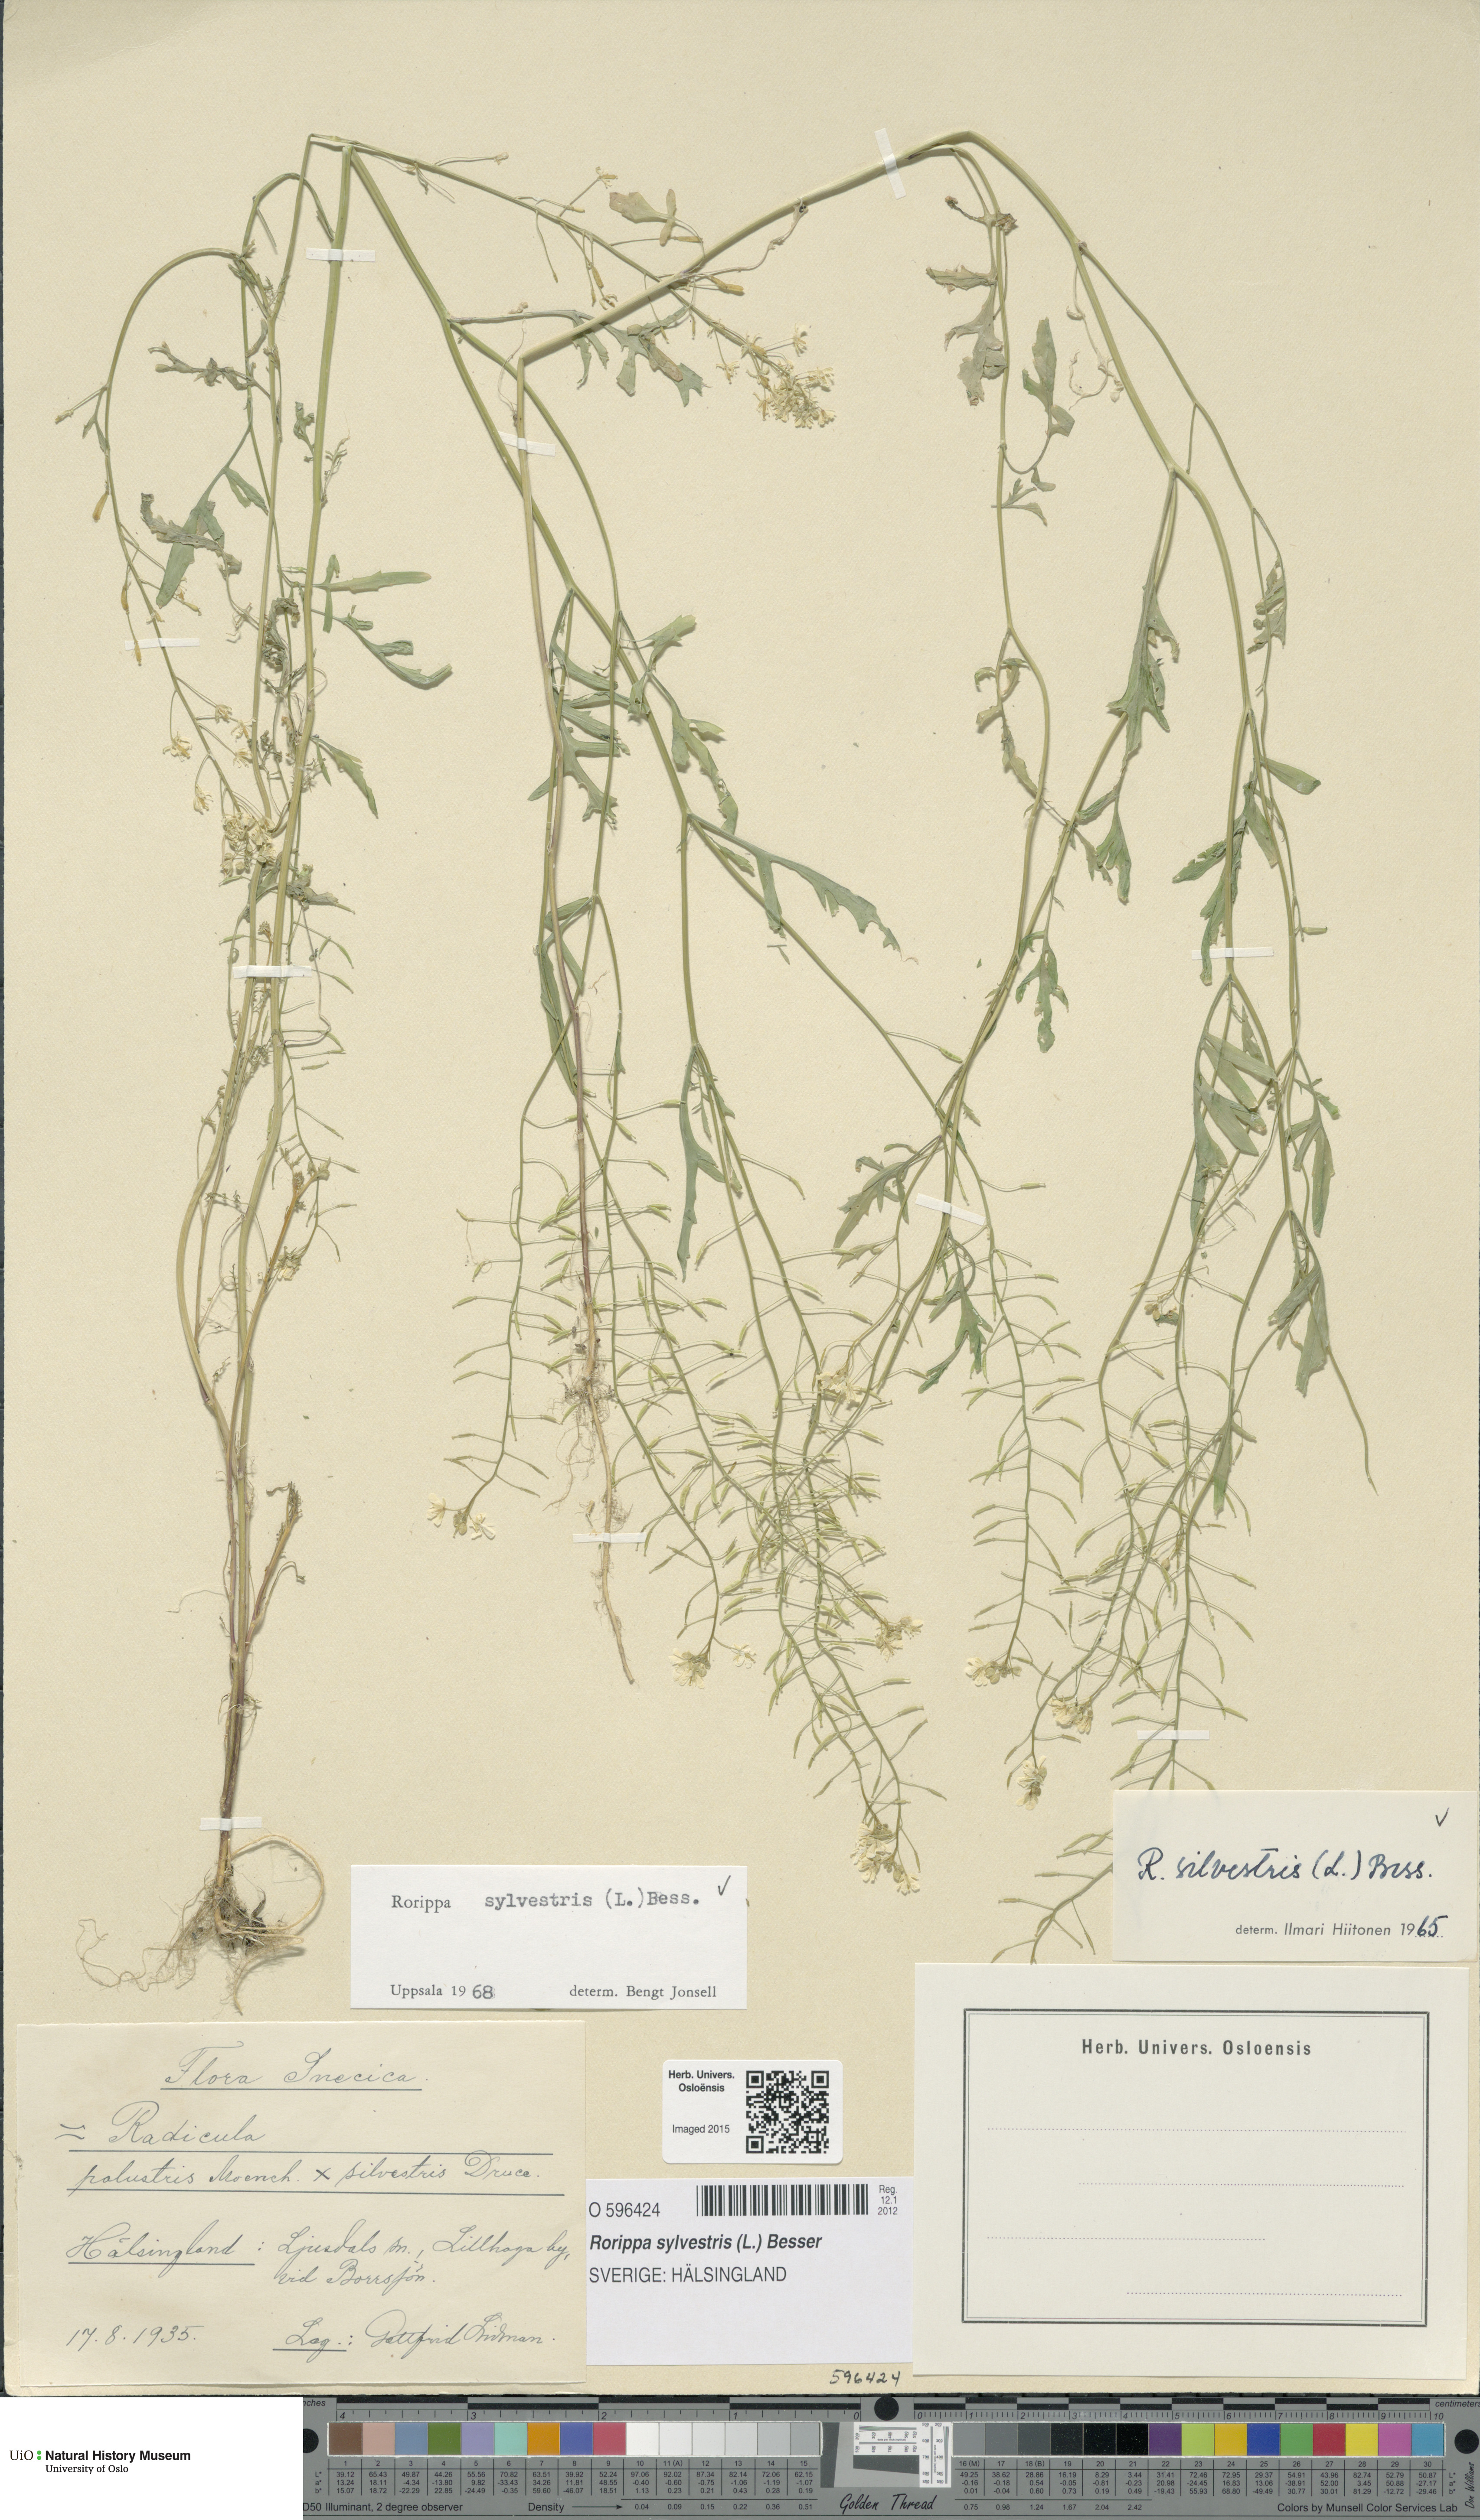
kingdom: Plantae
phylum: Tracheophyta
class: Magnoliopsida
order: Brassicales
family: Brassicaceae
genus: Rorippa
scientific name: Rorippa sylvestris
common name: Creeping yellowcress
